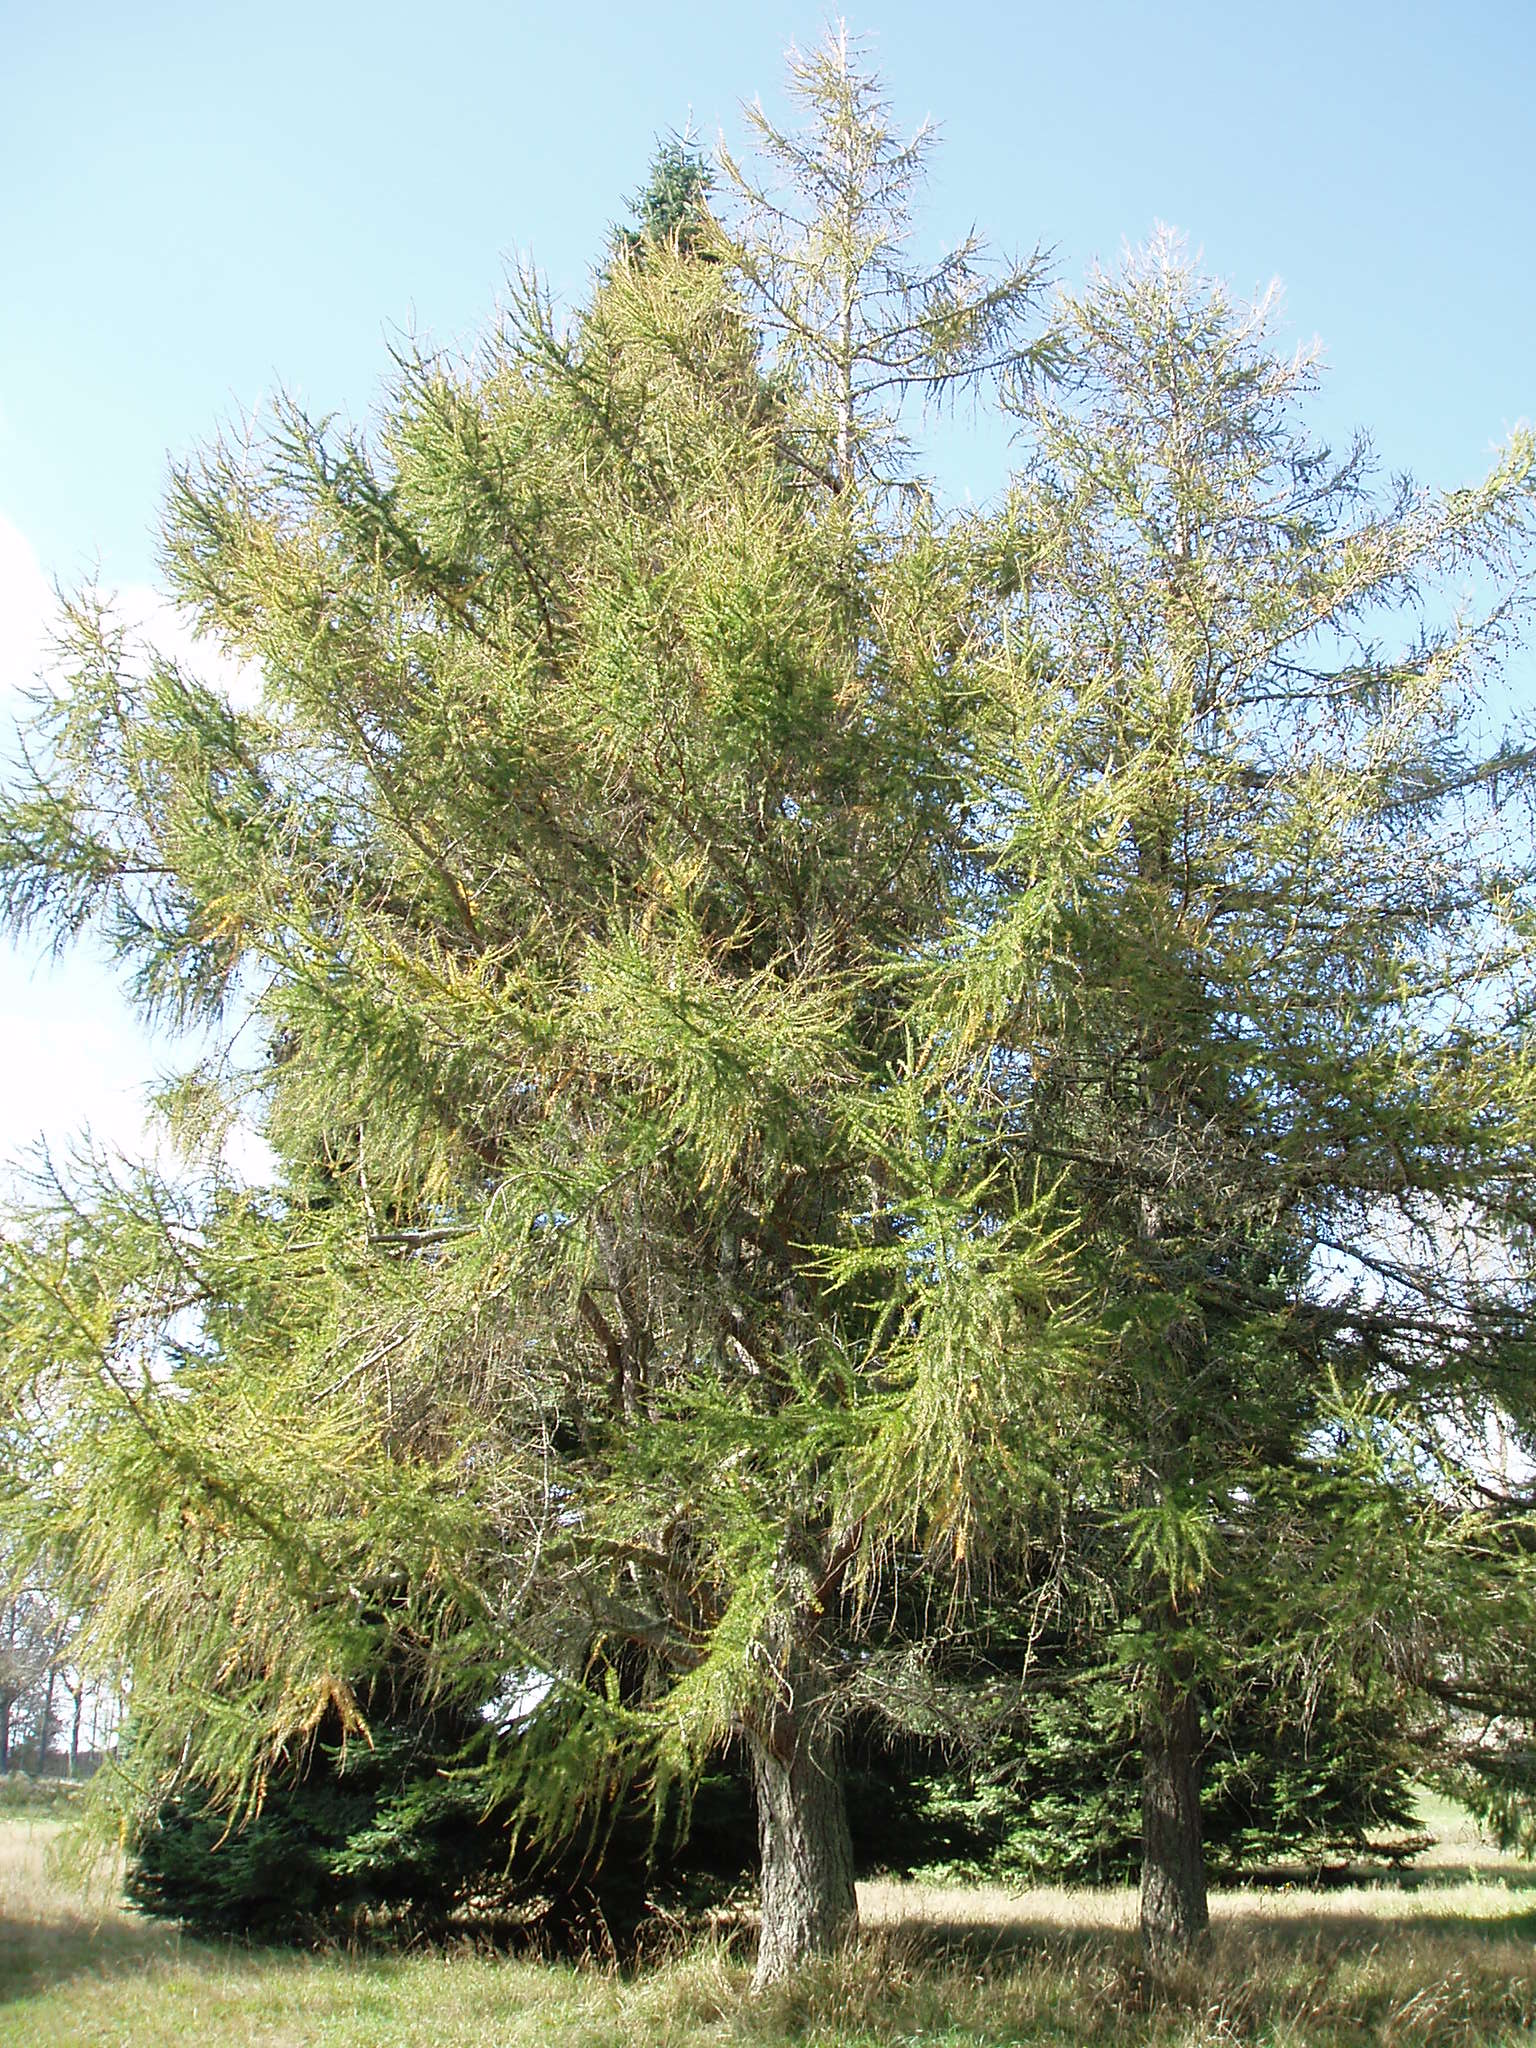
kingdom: Plantae
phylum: Tracheophyta
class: Pinopsida
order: Pinales
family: Pinaceae
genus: Larix
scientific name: Larix decidua
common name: European larch
